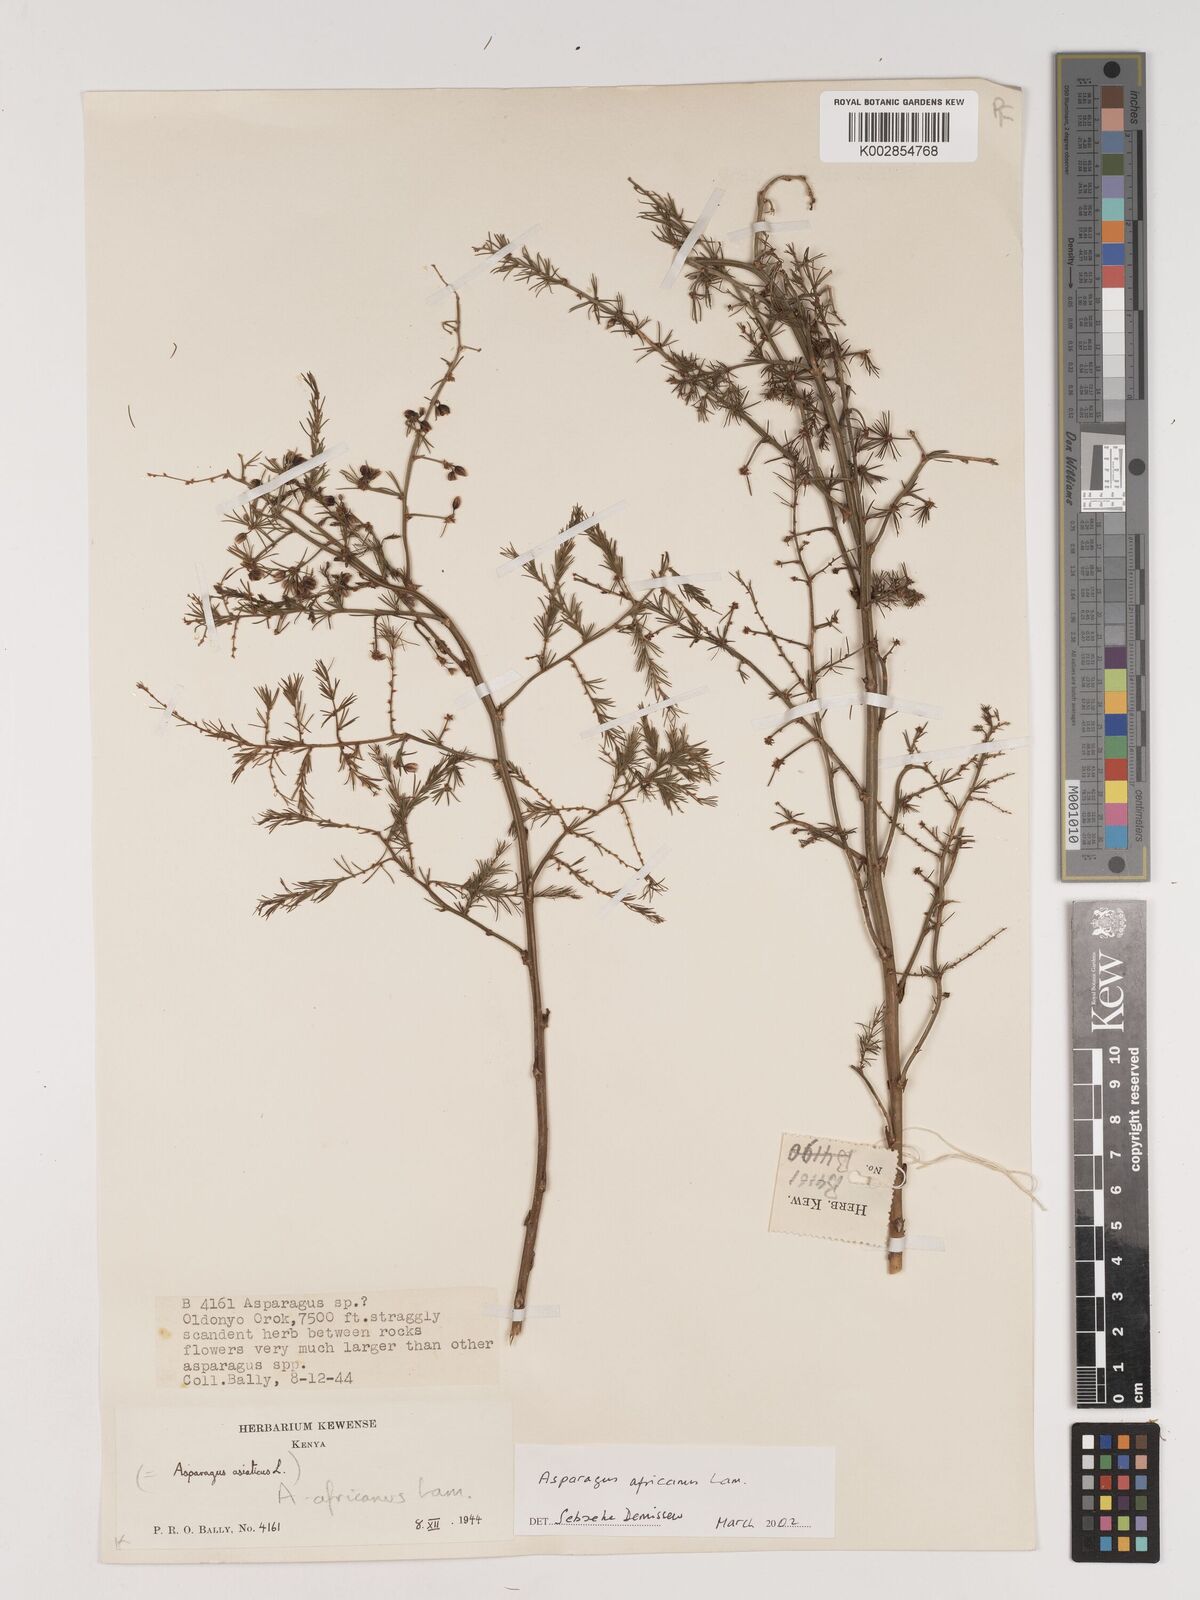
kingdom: Plantae
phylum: Tracheophyta
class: Liliopsida
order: Asparagales
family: Asparagaceae
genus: Asparagus
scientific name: Asparagus africanus
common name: Asparagus-fern
